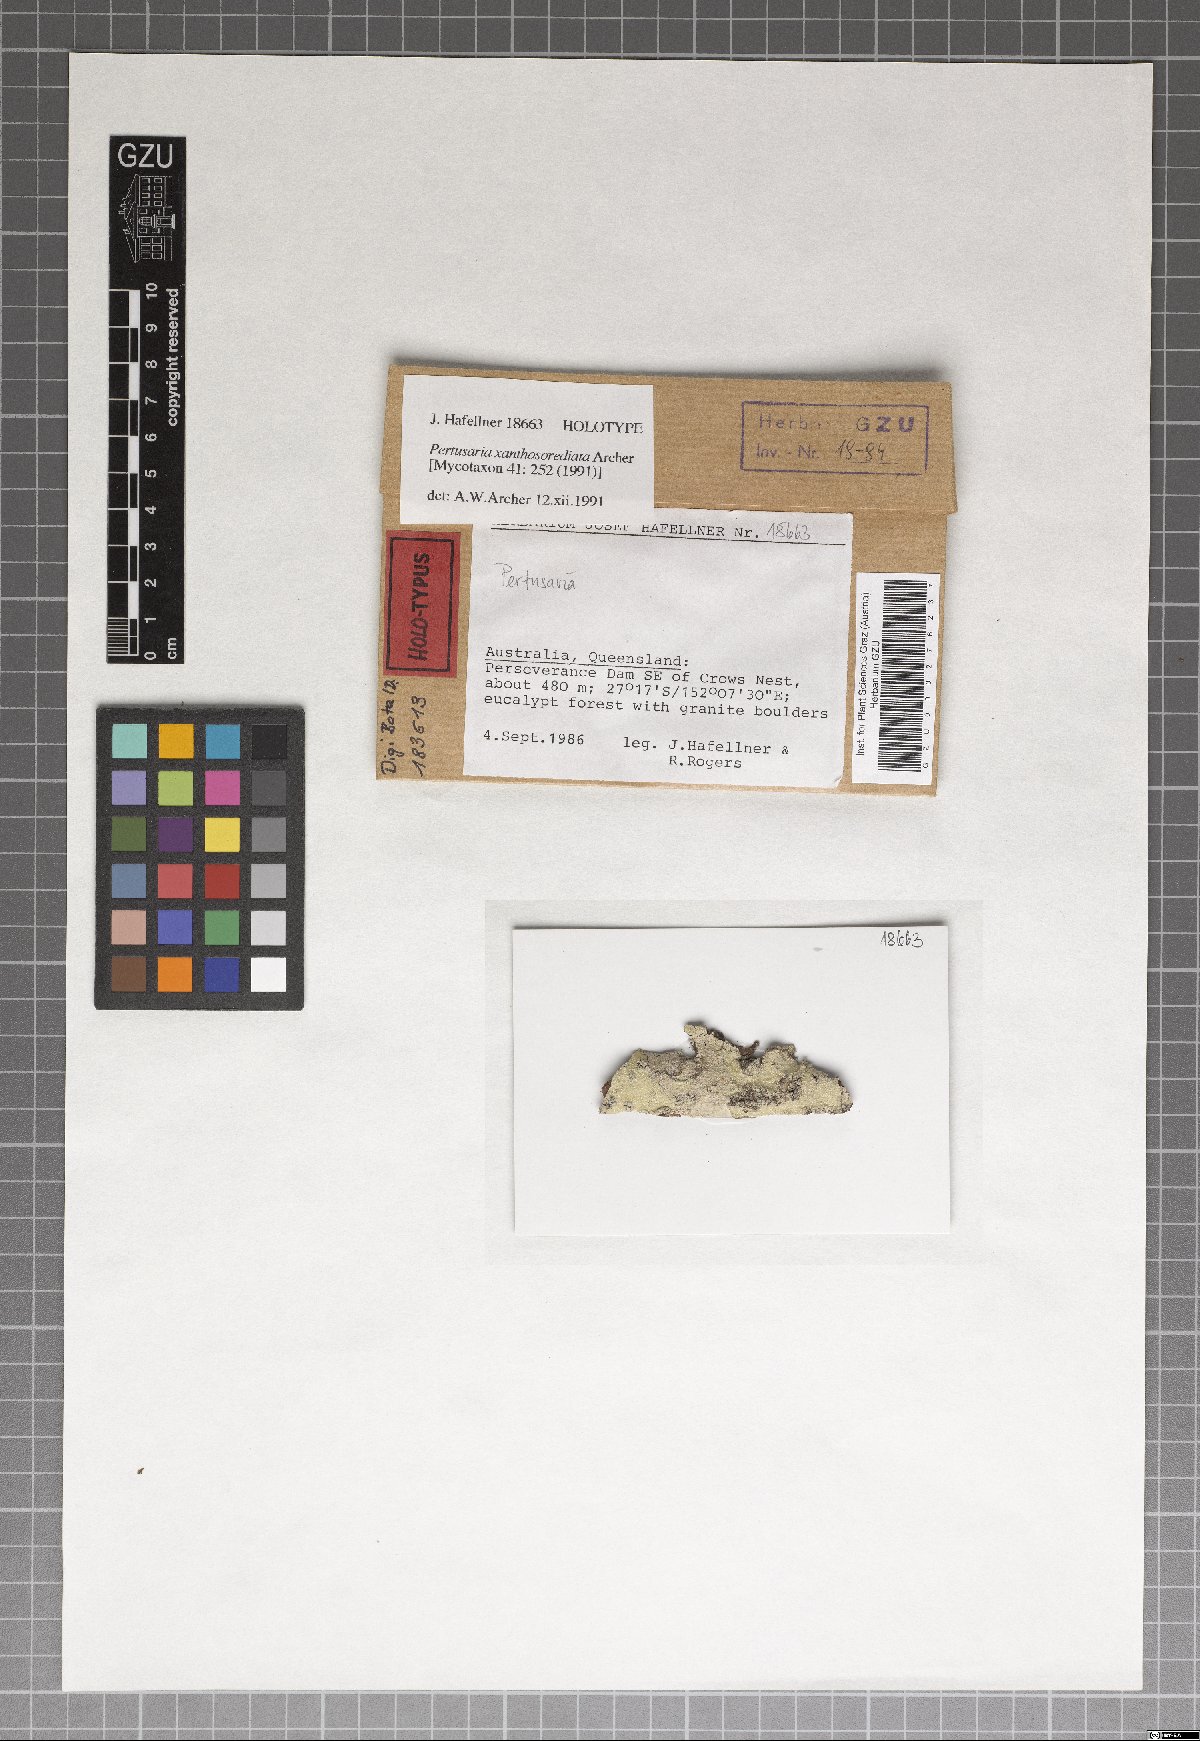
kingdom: Fungi
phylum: Ascomycota
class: Lecanoromycetes
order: Pertusariales
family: Pertusariaceae
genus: Pertusaria
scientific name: Pertusaria xanthosorediata
